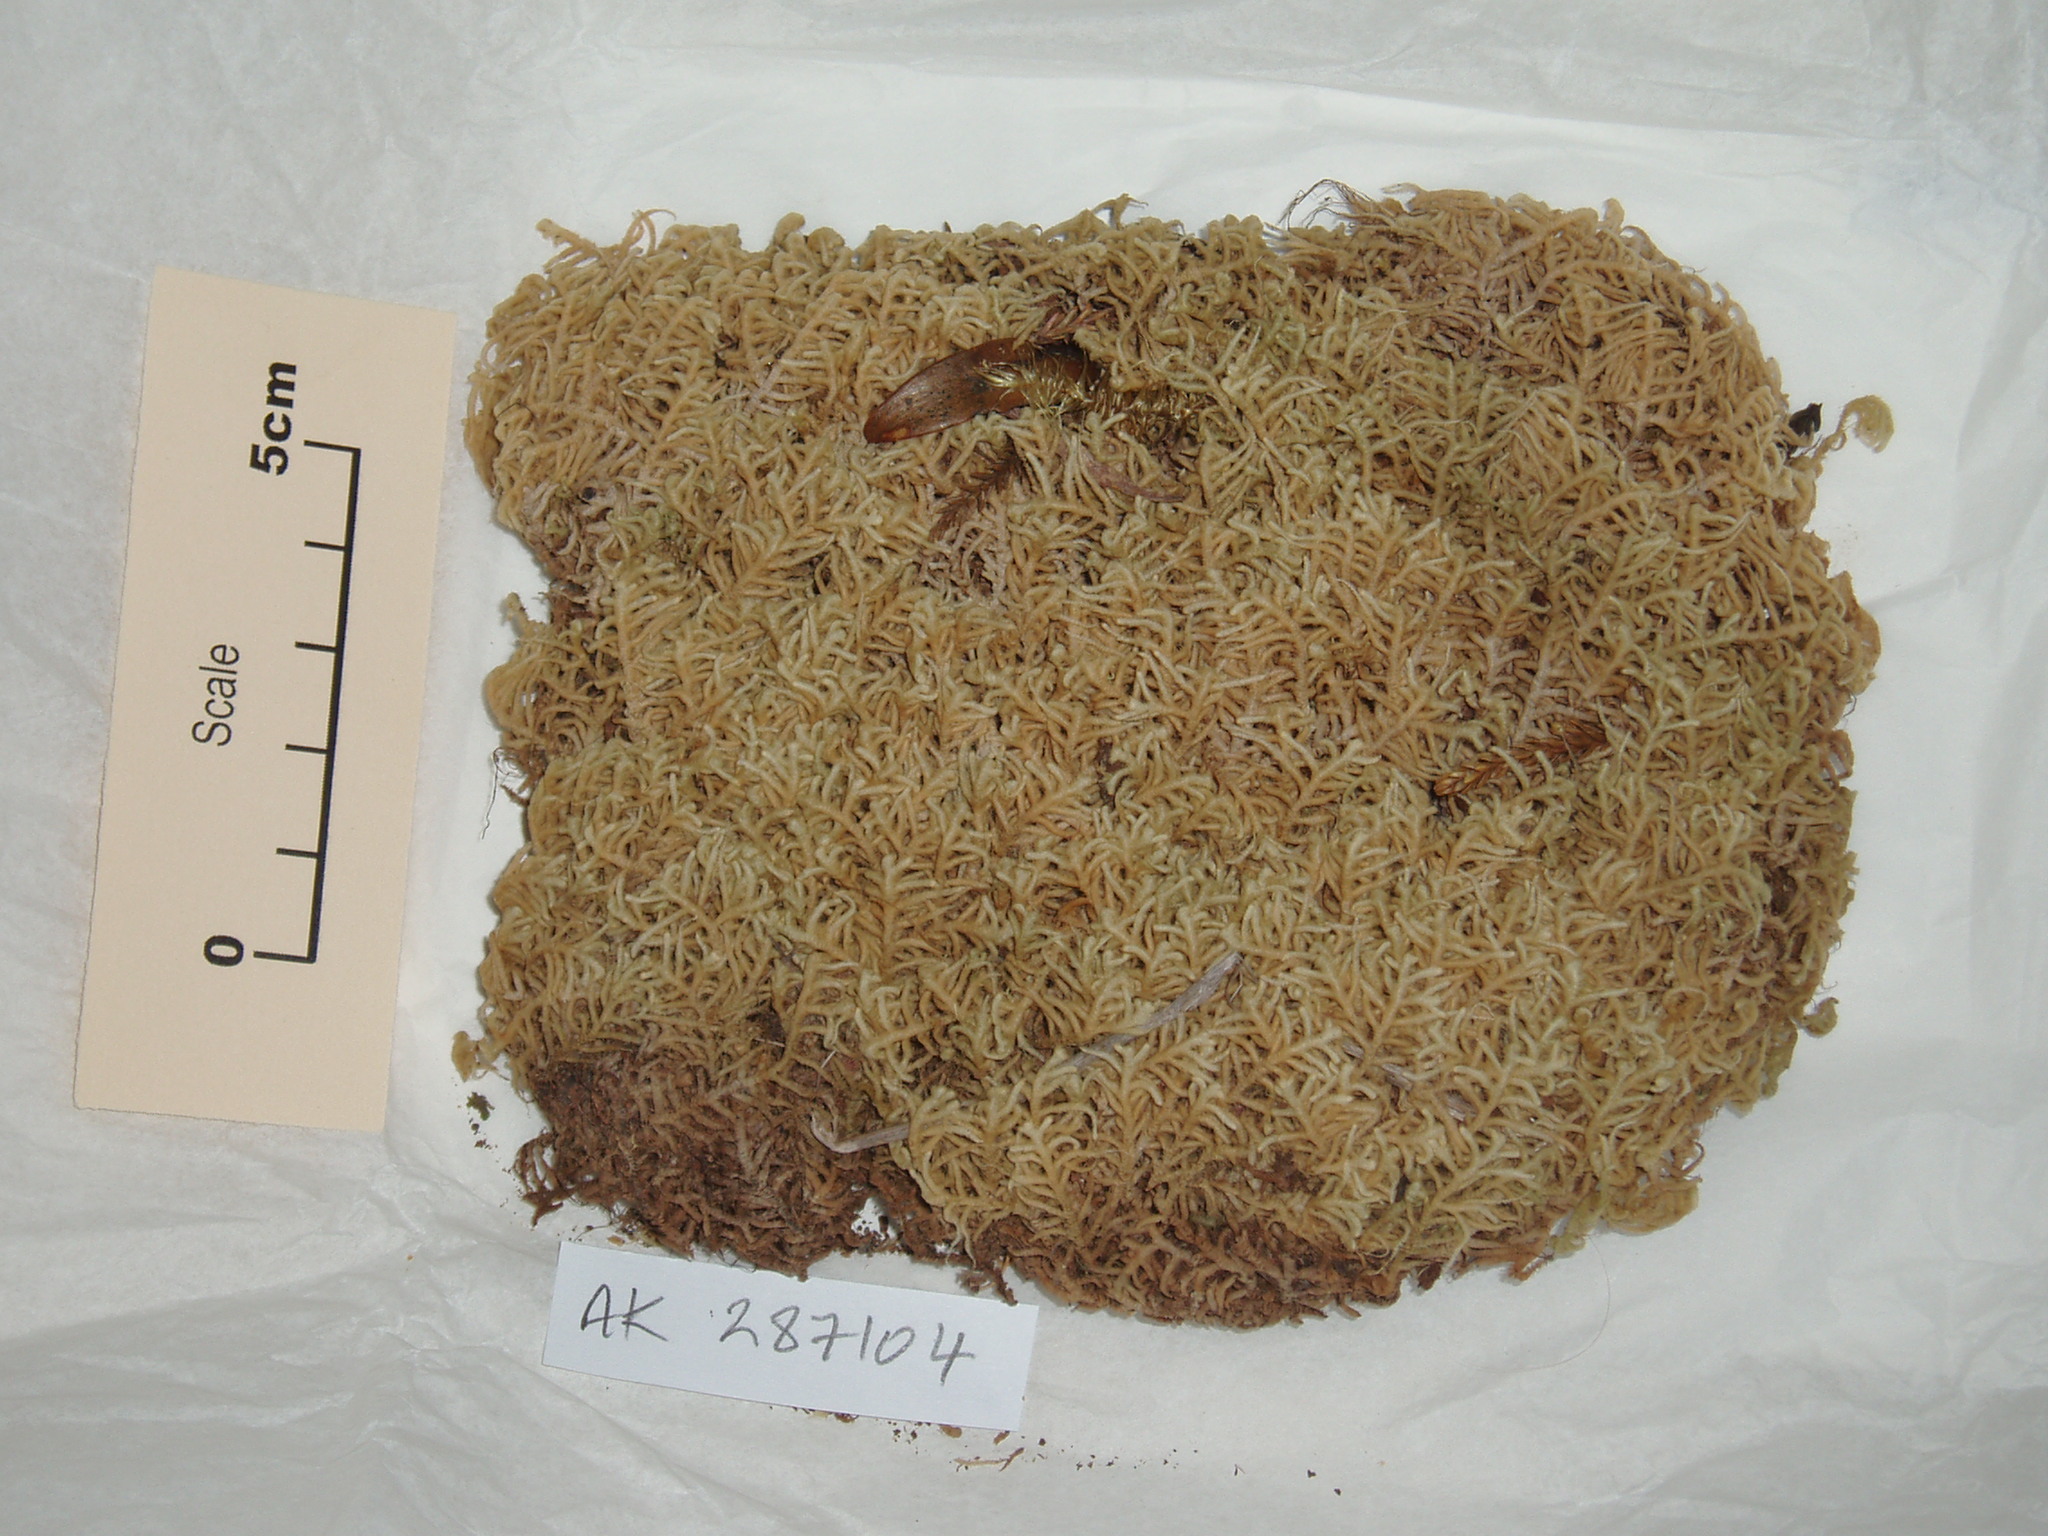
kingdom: Plantae
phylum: Marchantiophyta
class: Jungermanniopsida
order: Jungermanniales
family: Lepidoziaceae
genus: Lepidozia
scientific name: Lepidozia setigera
